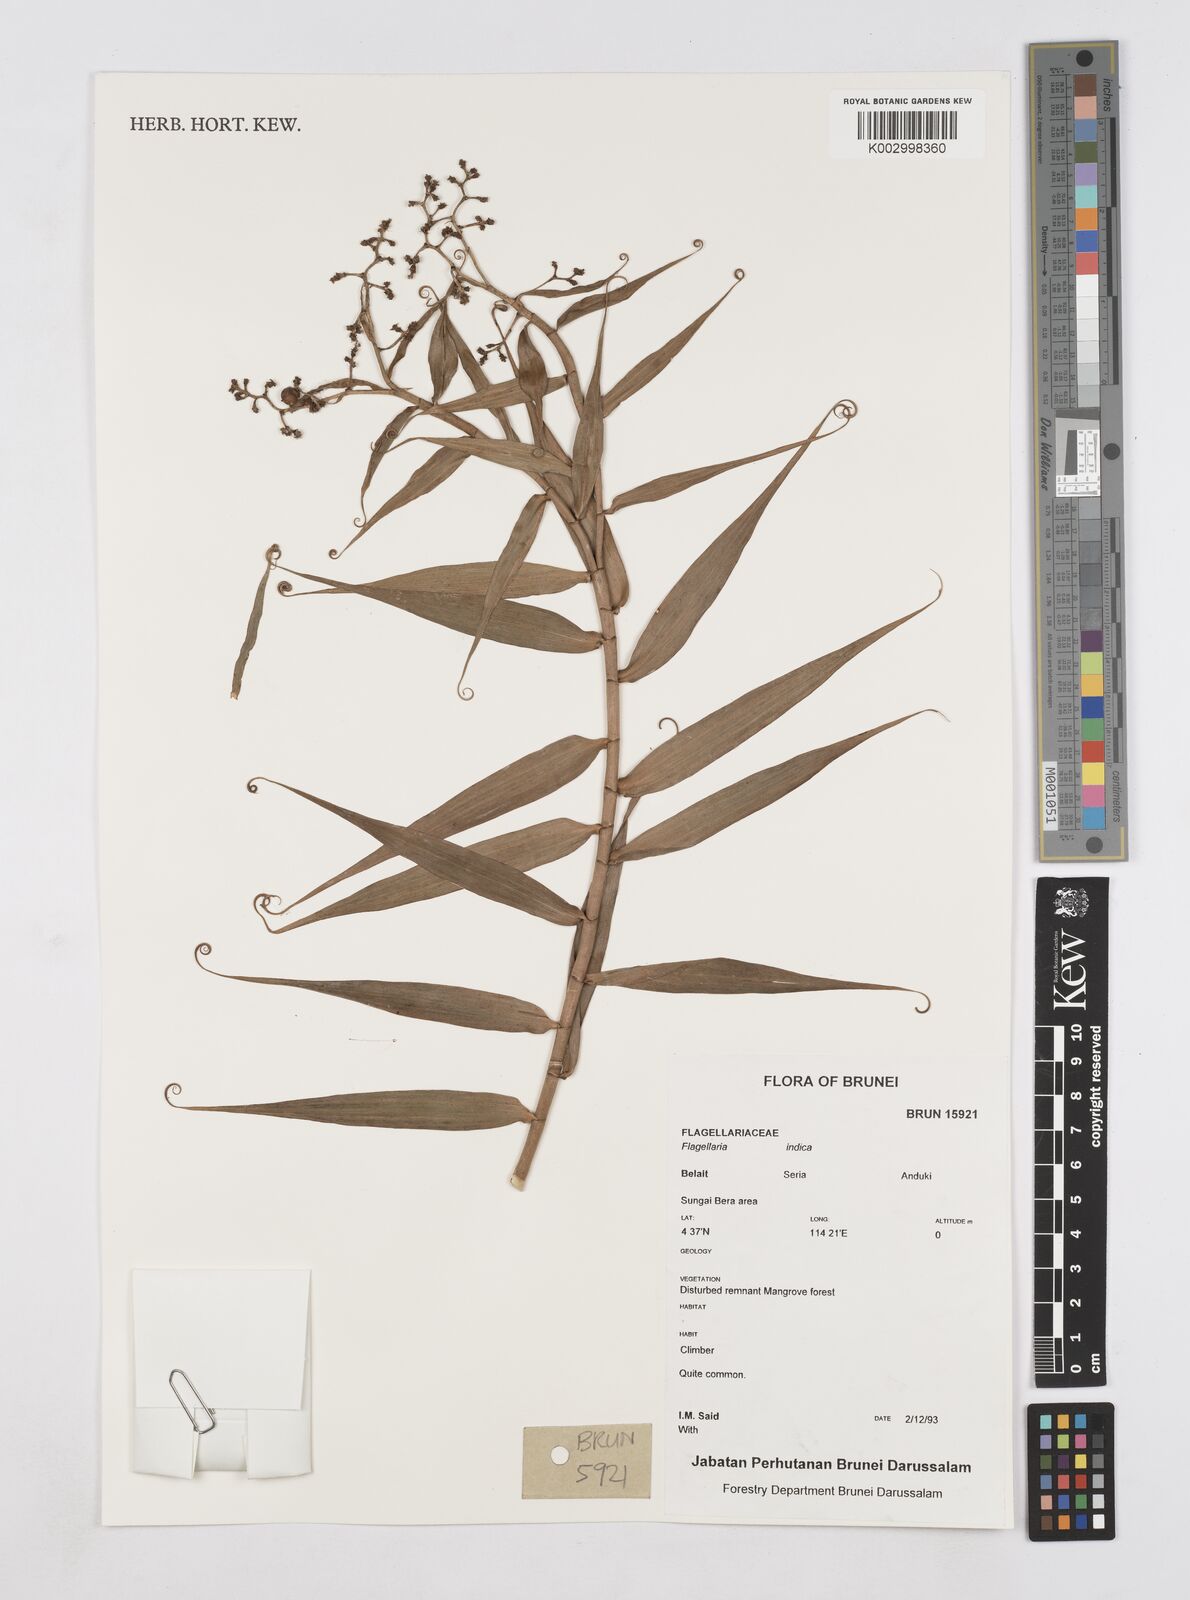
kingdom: Plantae
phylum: Tracheophyta
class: Liliopsida
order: Poales
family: Flagellariaceae
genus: Flagellaria
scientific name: Flagellaria indica
